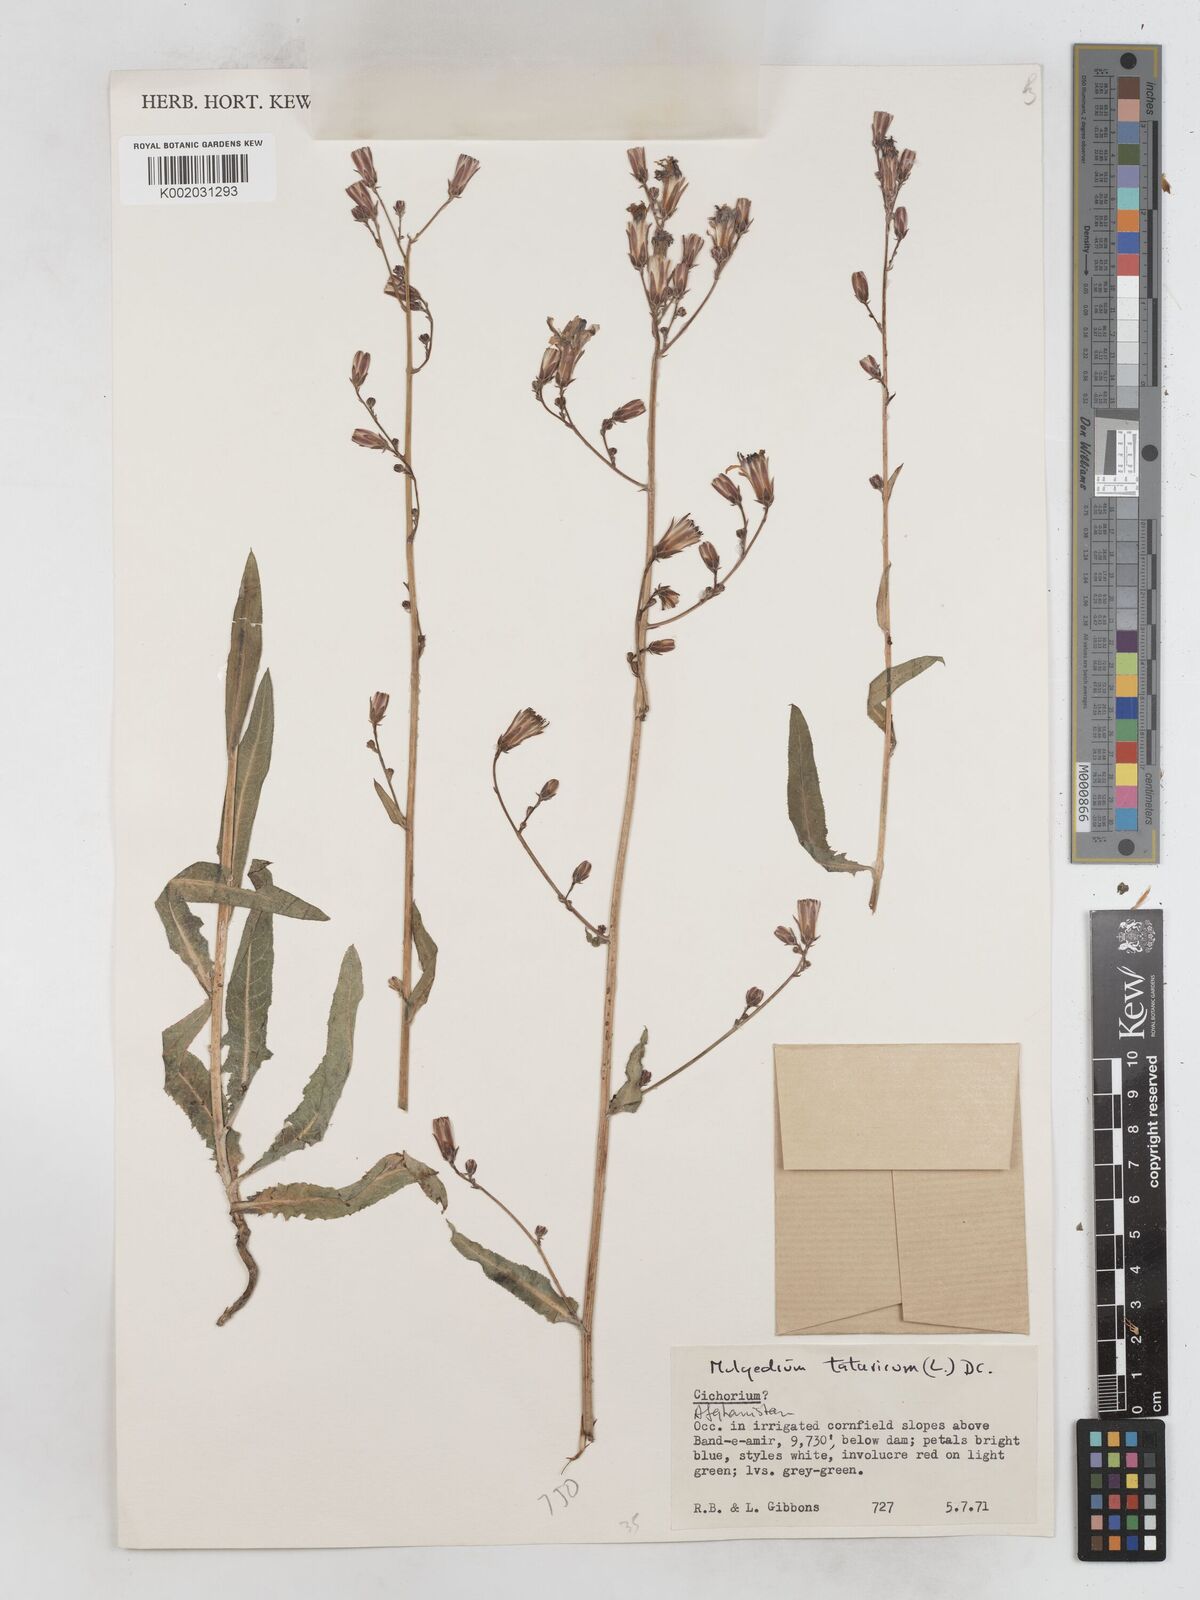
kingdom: Plantae
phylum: Tracheophyta
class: Magnoliopsida
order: Asterales
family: Asteraceae
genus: Lactuca
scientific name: Lactuca tatarica
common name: Blue lettuce
